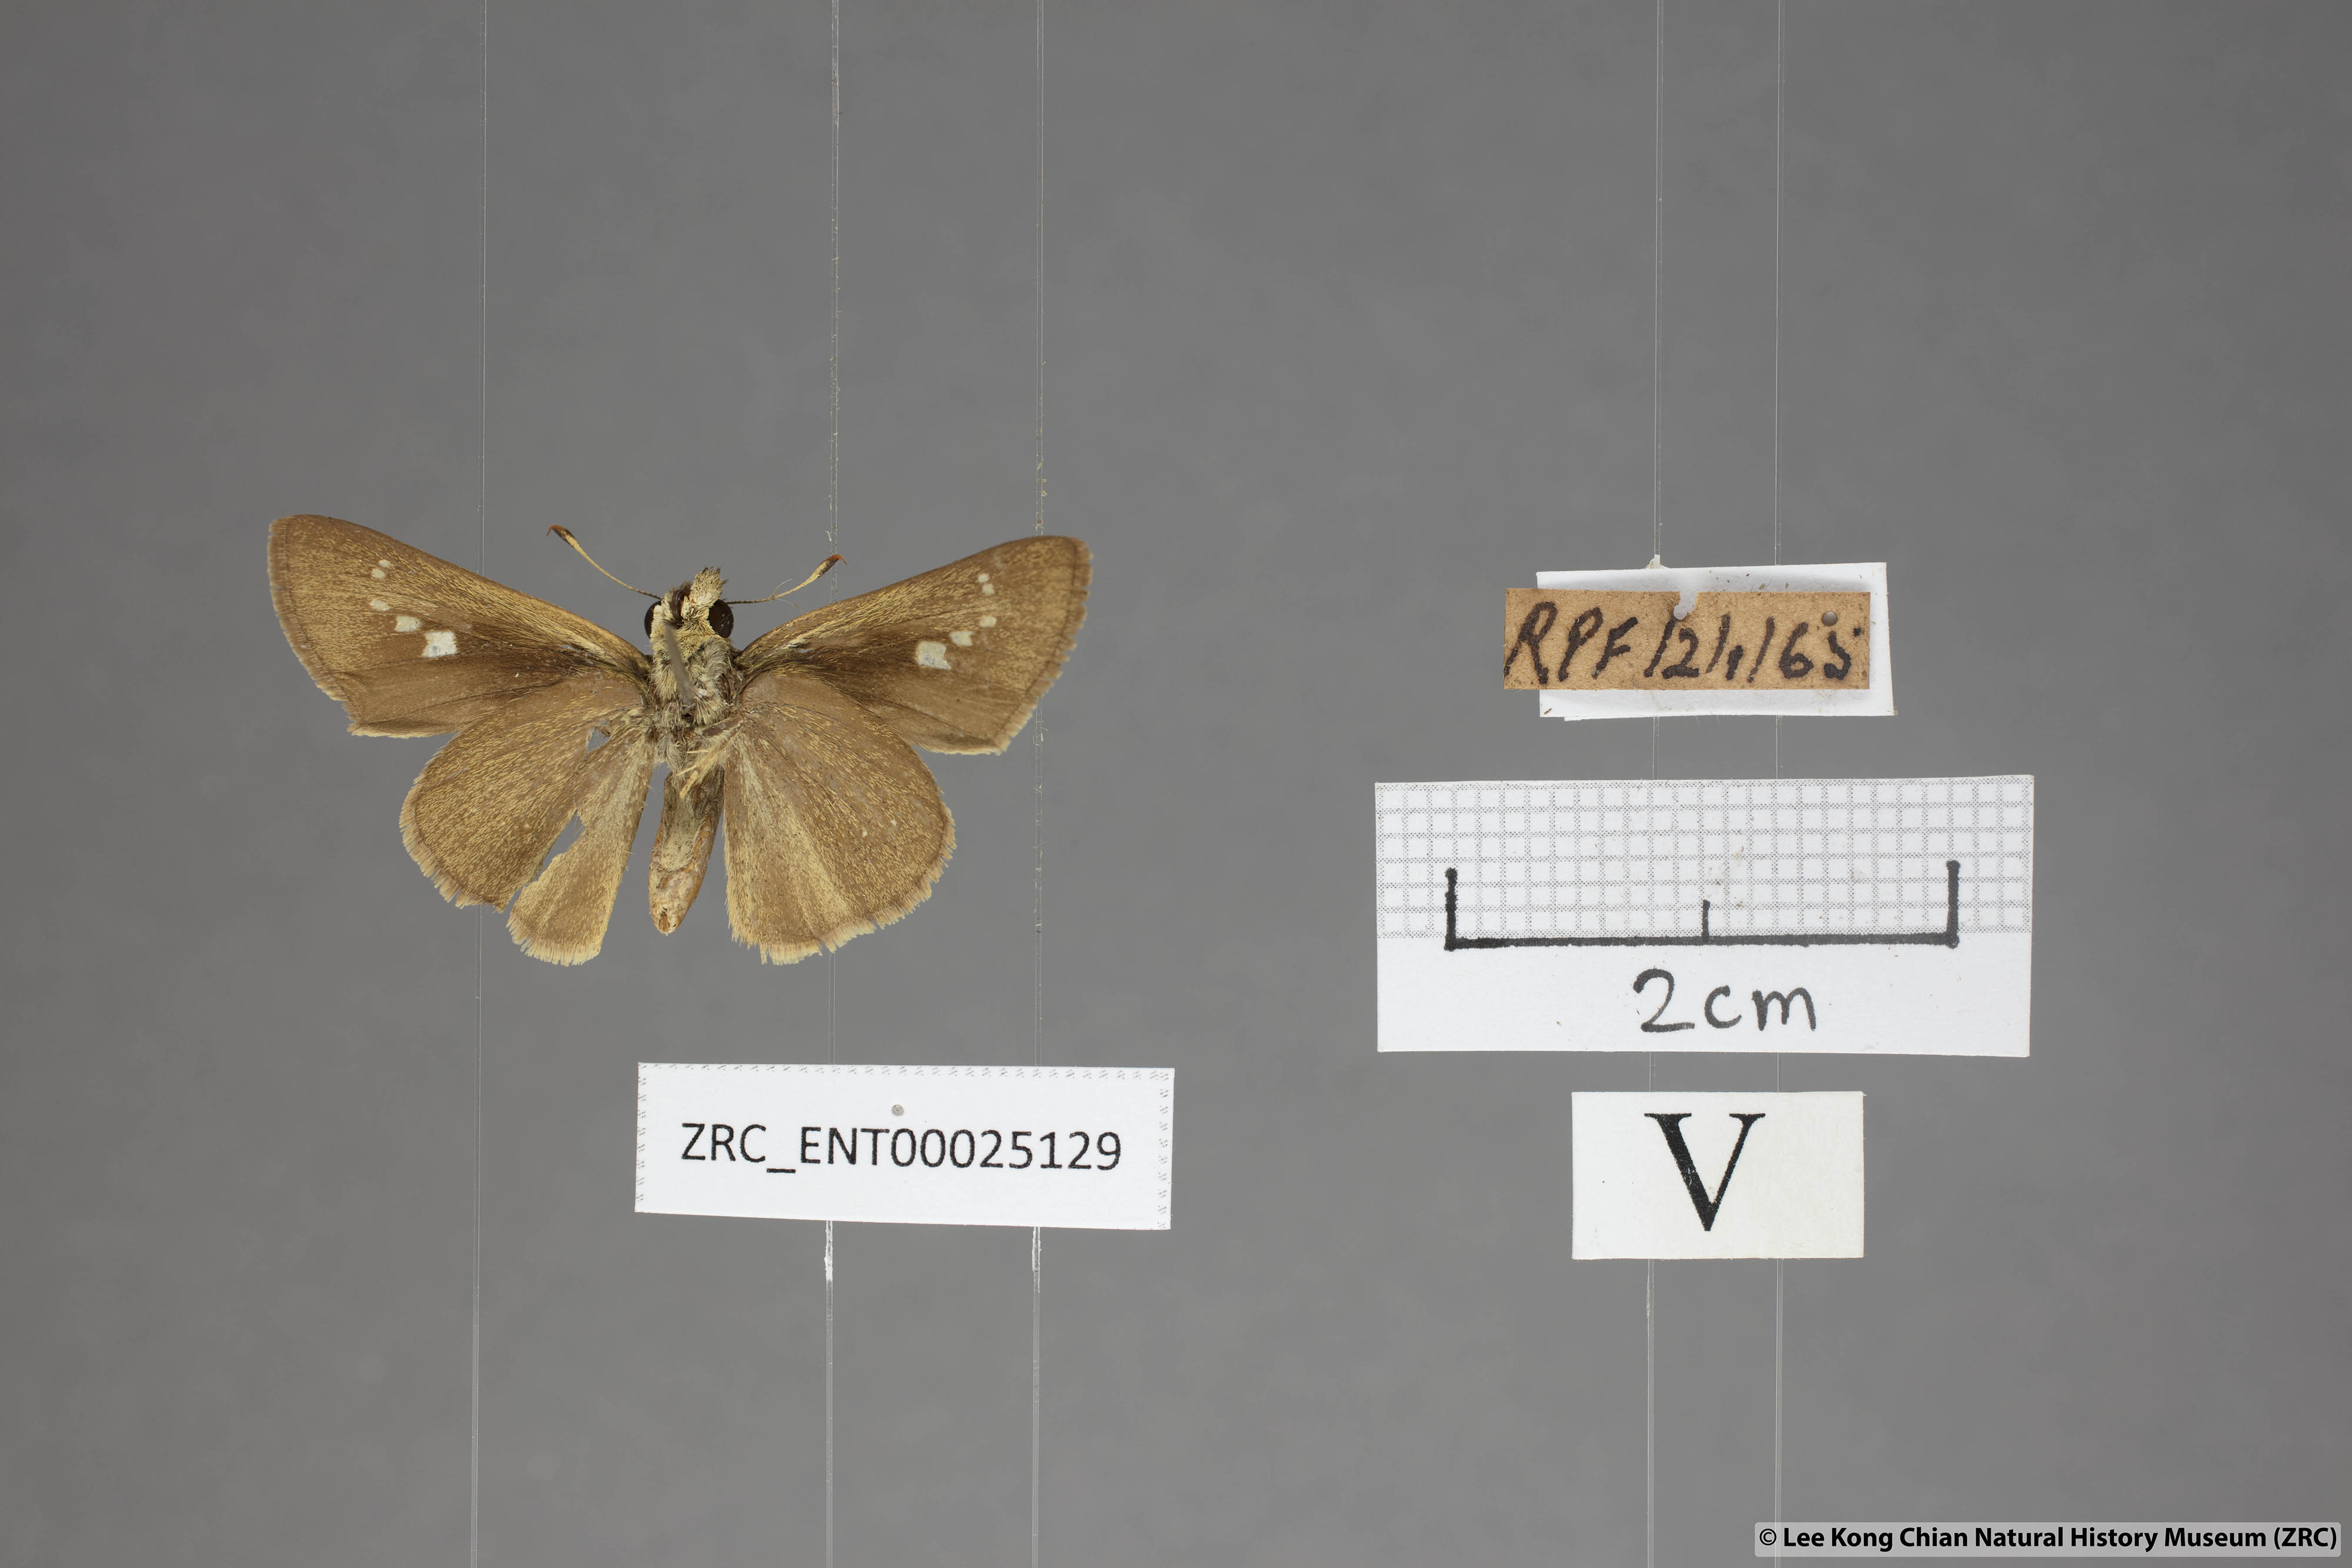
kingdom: Animalia
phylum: Arthropoda
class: Insecta
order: Lepidoptera
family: Hesperiidae
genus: Parnara
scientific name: Parnara naso
